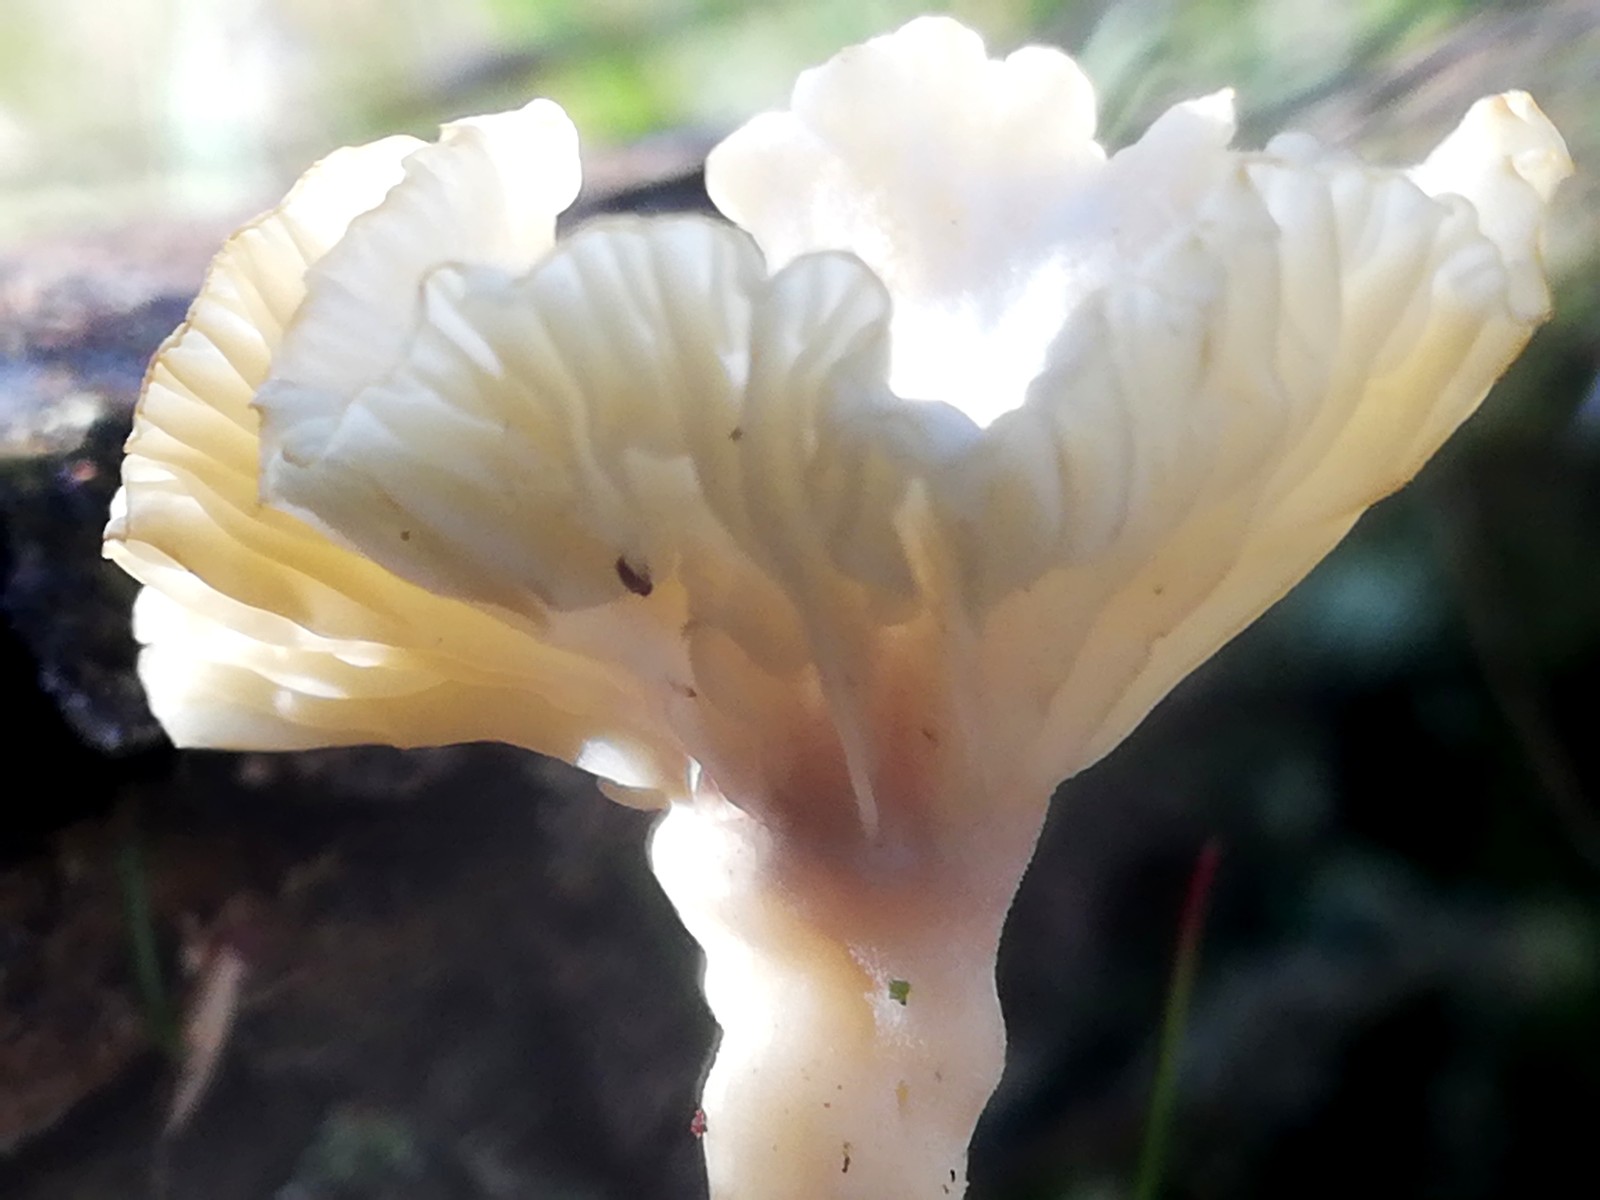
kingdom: Fungi
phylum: Basidiomycota
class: Agaricomycetes
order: Agaricales
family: Hygrophoraceae
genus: Lichenomphalia
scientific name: Lichenomphalia umbellifera
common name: tørve-lavhat
